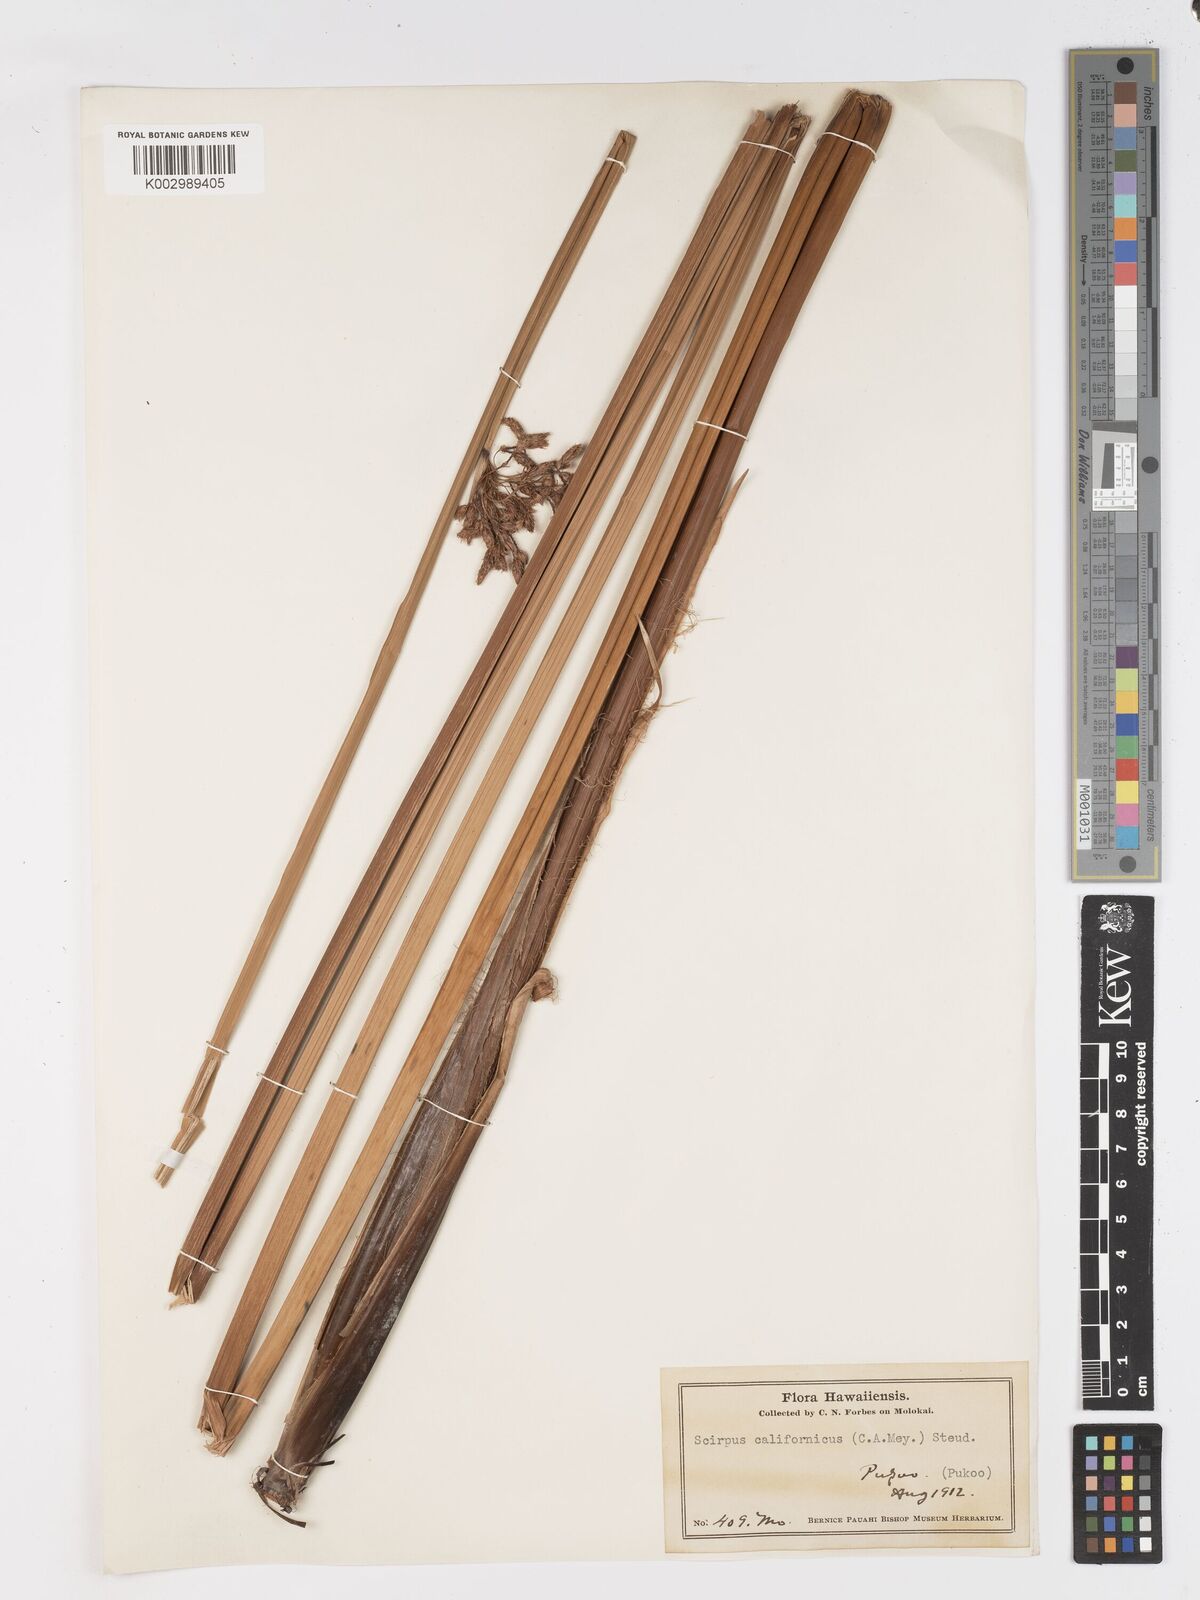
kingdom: Plantae
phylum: Tracheophyta
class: Liliopsida
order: Poales
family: Cyperaceae
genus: Schoenoplectus
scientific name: Schoenoplectus californicus
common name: California bulrush
